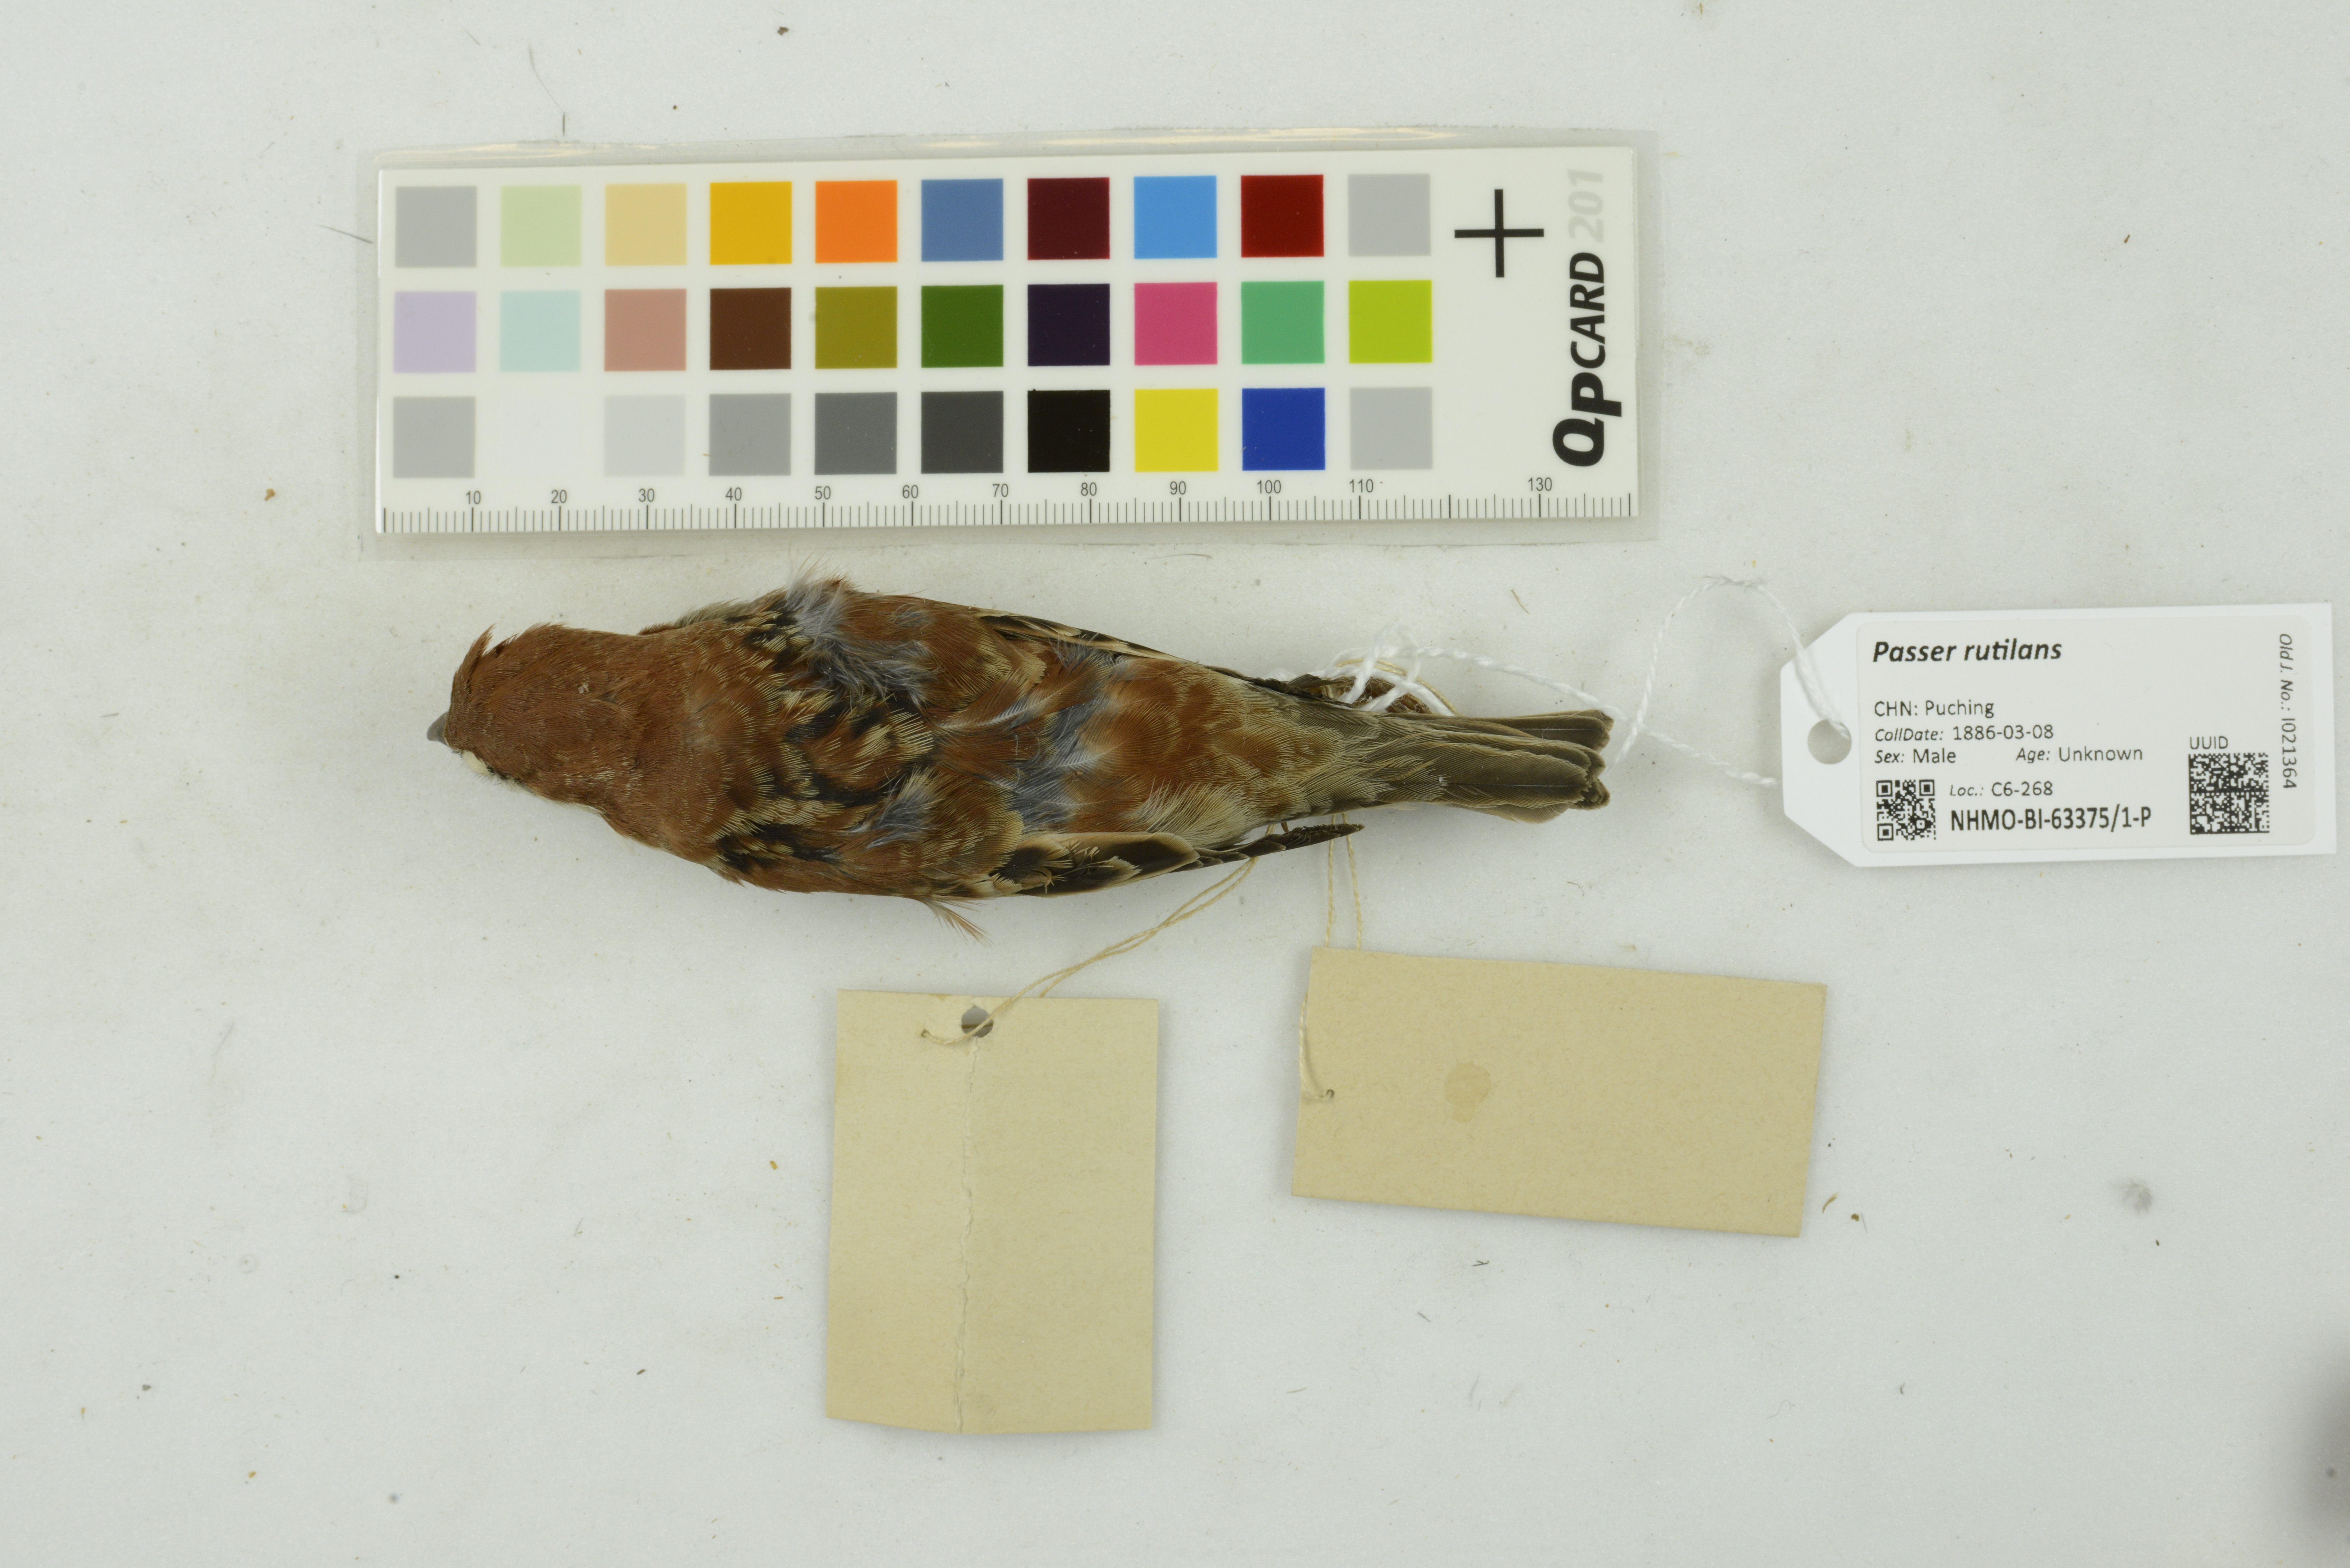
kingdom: Animalia
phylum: Chordata
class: Aves
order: Passeriformes
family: Passeridae
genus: Passer
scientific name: Passer rutilans
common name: Russet sparrow
